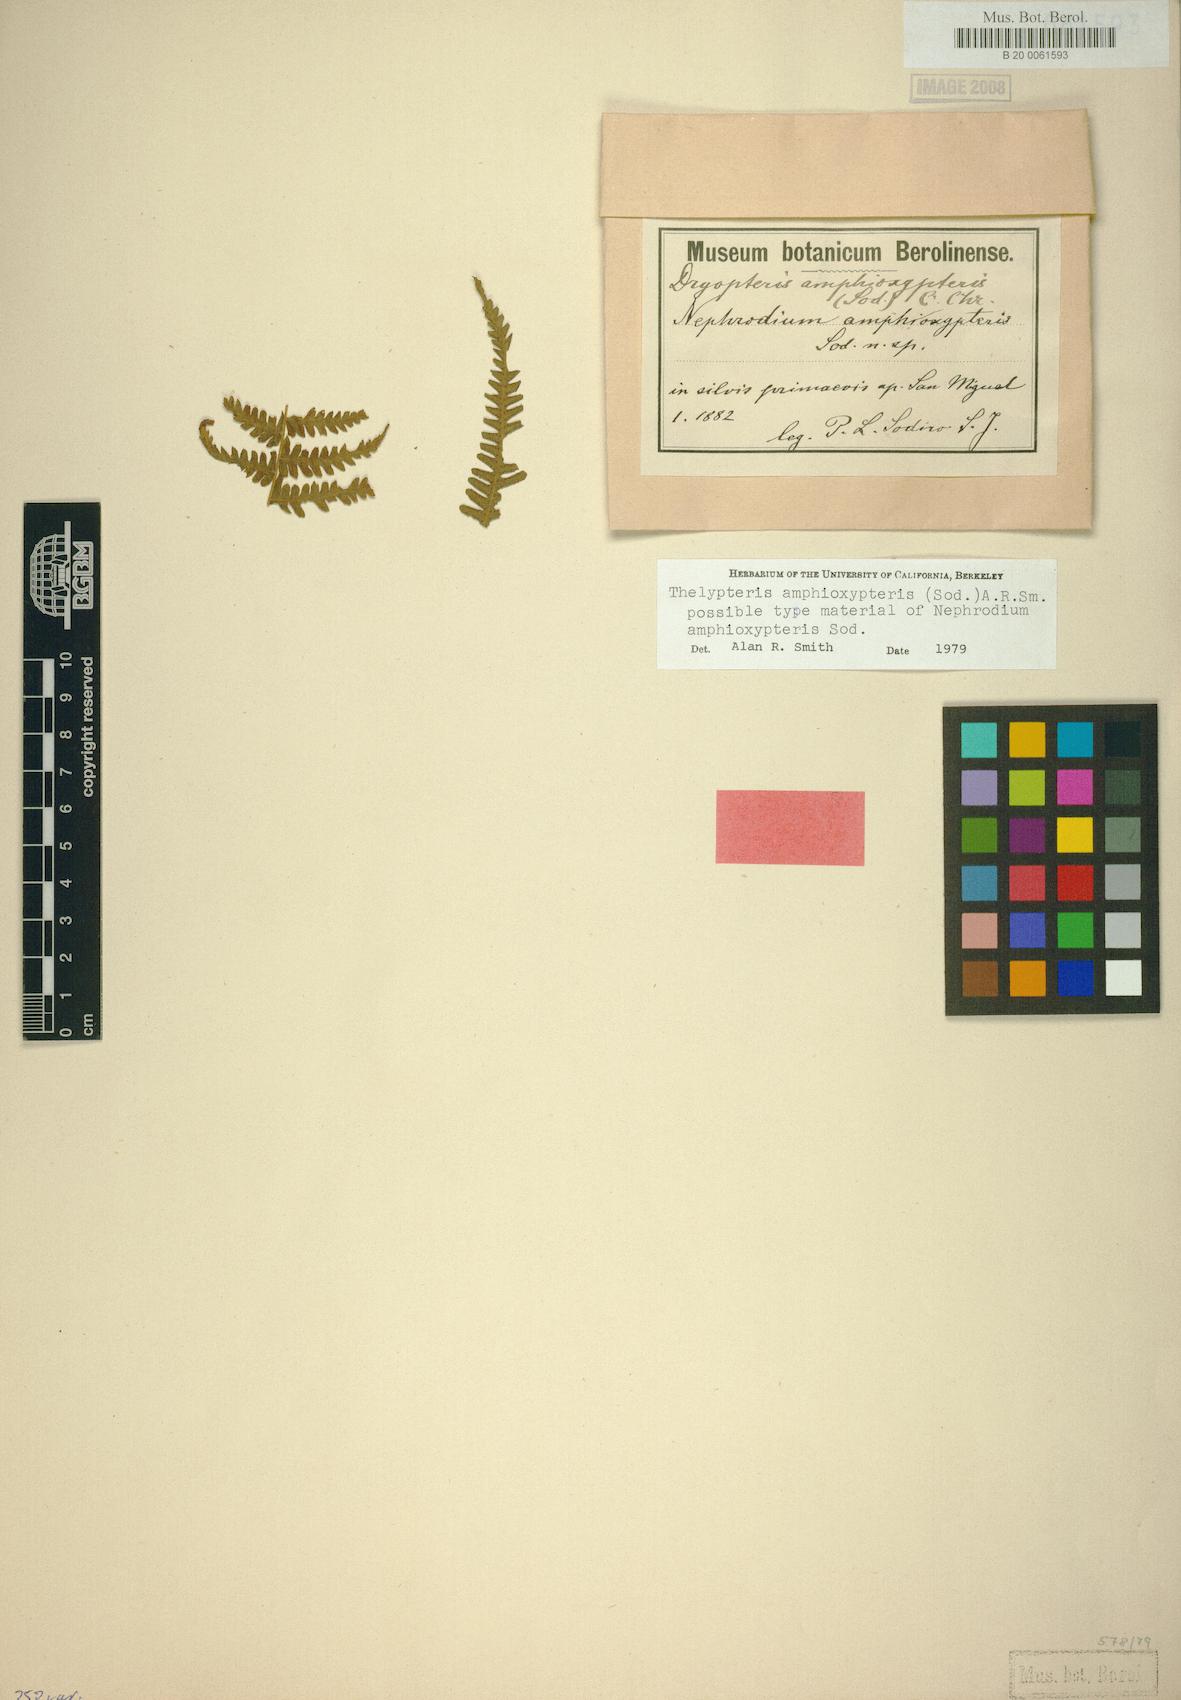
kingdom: Plantae
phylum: Tracheophyta
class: Polypodiopsida
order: Polypodiales
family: Thelypteridaceae
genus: Amauropelta
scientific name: Amauropelta amphioxypteris
